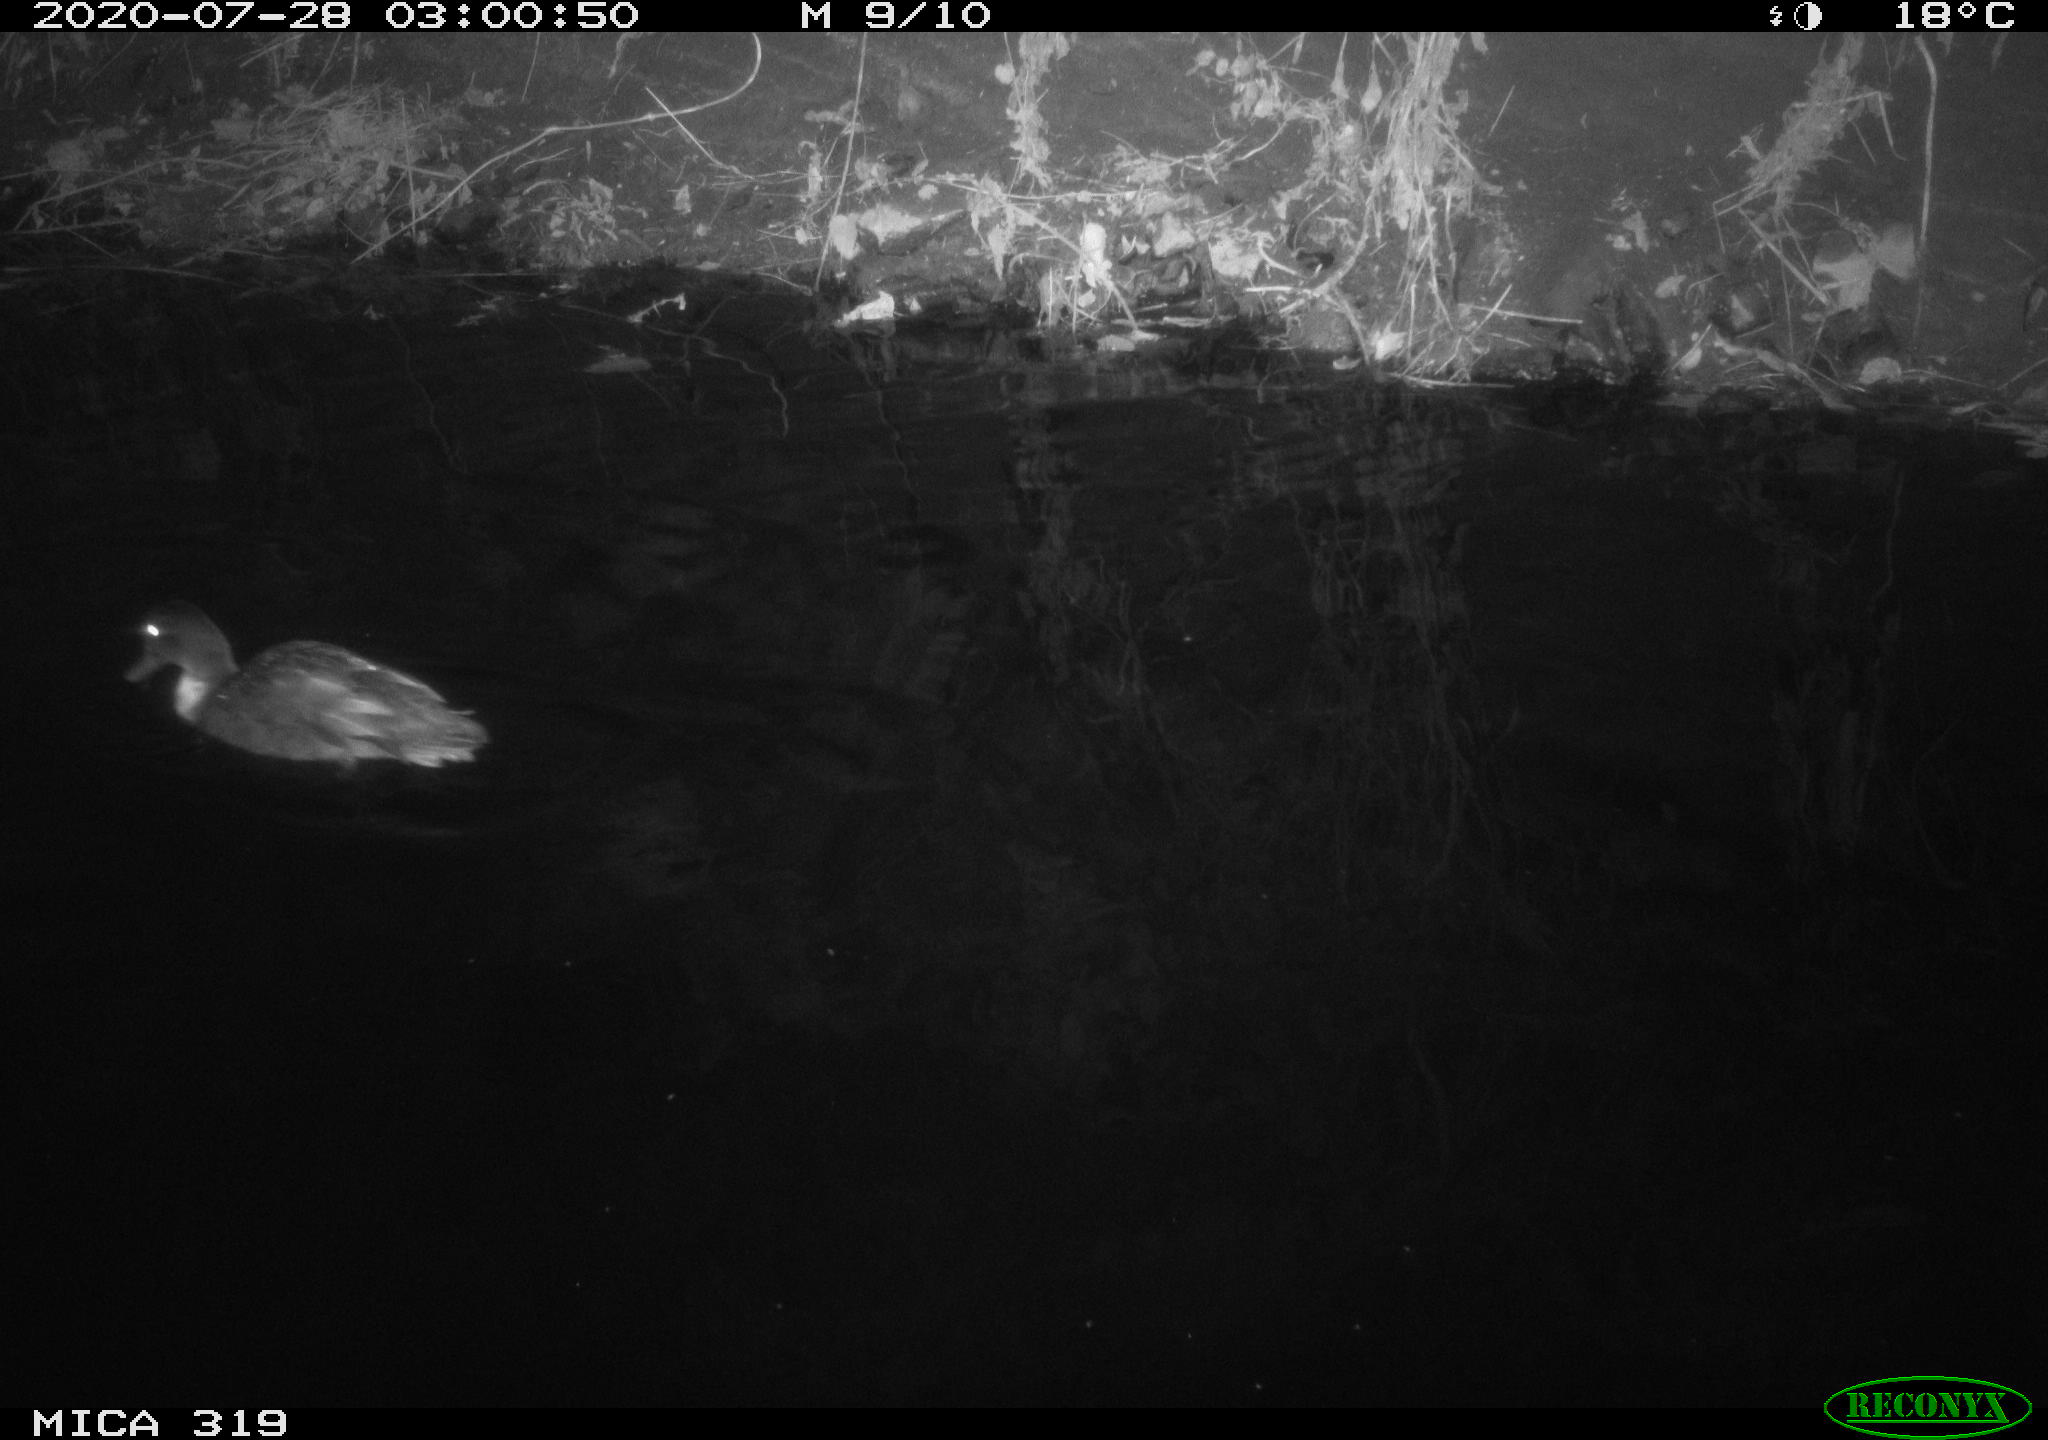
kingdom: Animalia
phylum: Chordata
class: Aves
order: Anseriformes
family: Anatidae
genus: Anas
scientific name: Anas platyrhynchos
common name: Mallard
